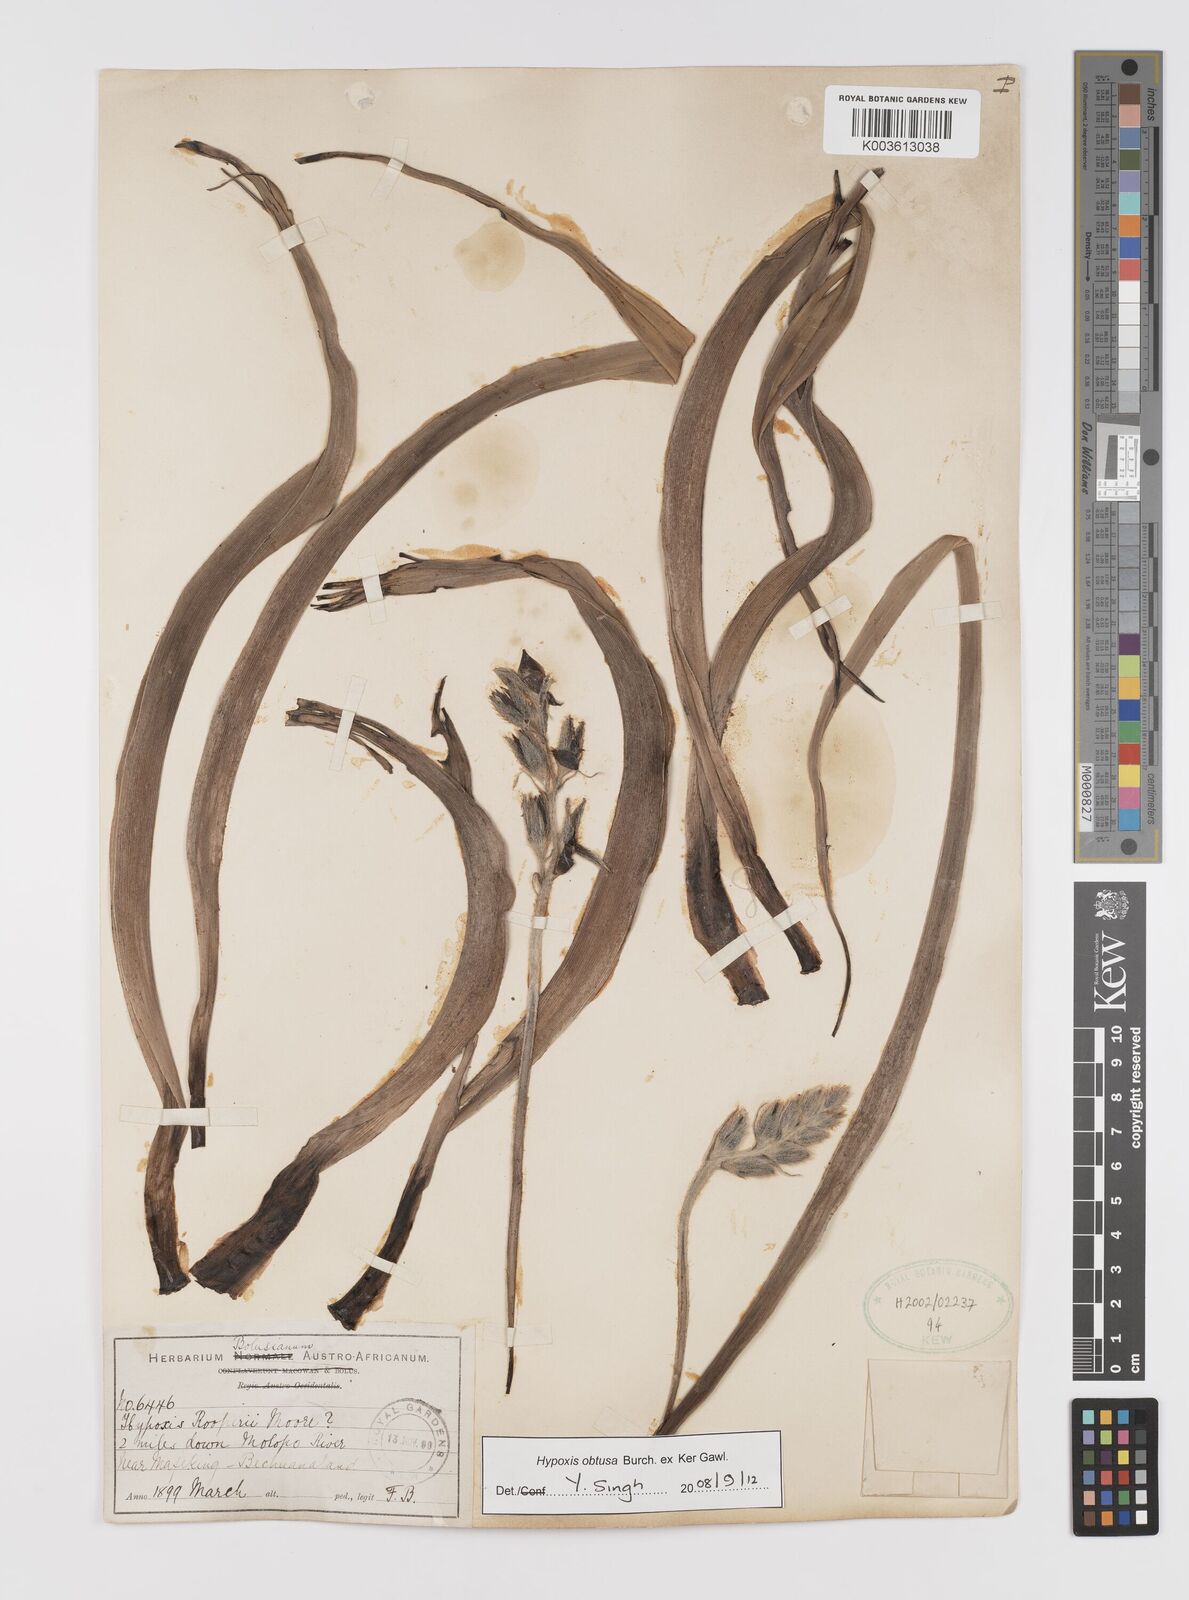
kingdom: Plantae
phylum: Tracheophyta
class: Liliopsida
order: Asparagales
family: Hypoxidaceae
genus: Hypoxis
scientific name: Hypoxis obtusa
